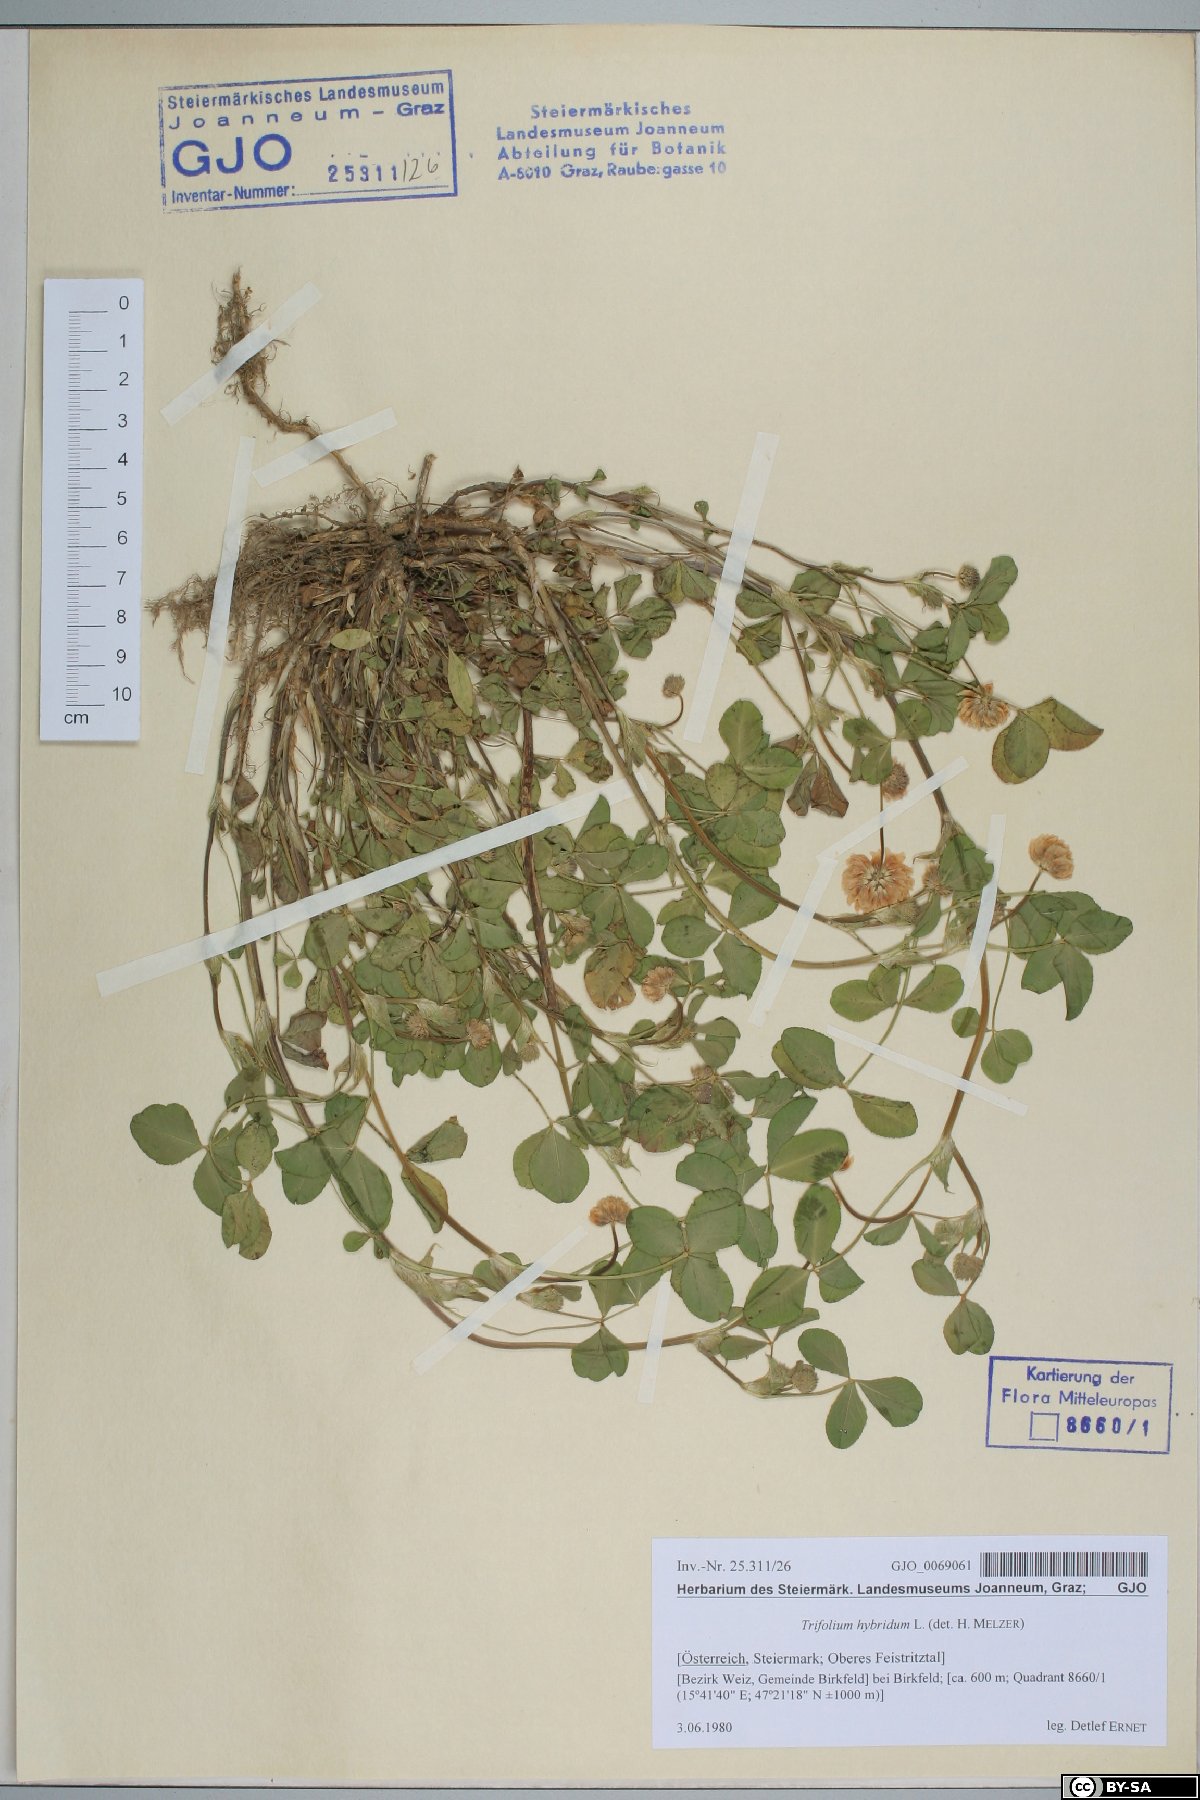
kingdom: Plantae
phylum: Tracheophyta
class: Magnoliopsida
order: Fabales
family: Fabaceae
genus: Trifolium
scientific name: Trifolium hybridum
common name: Alsike clover
